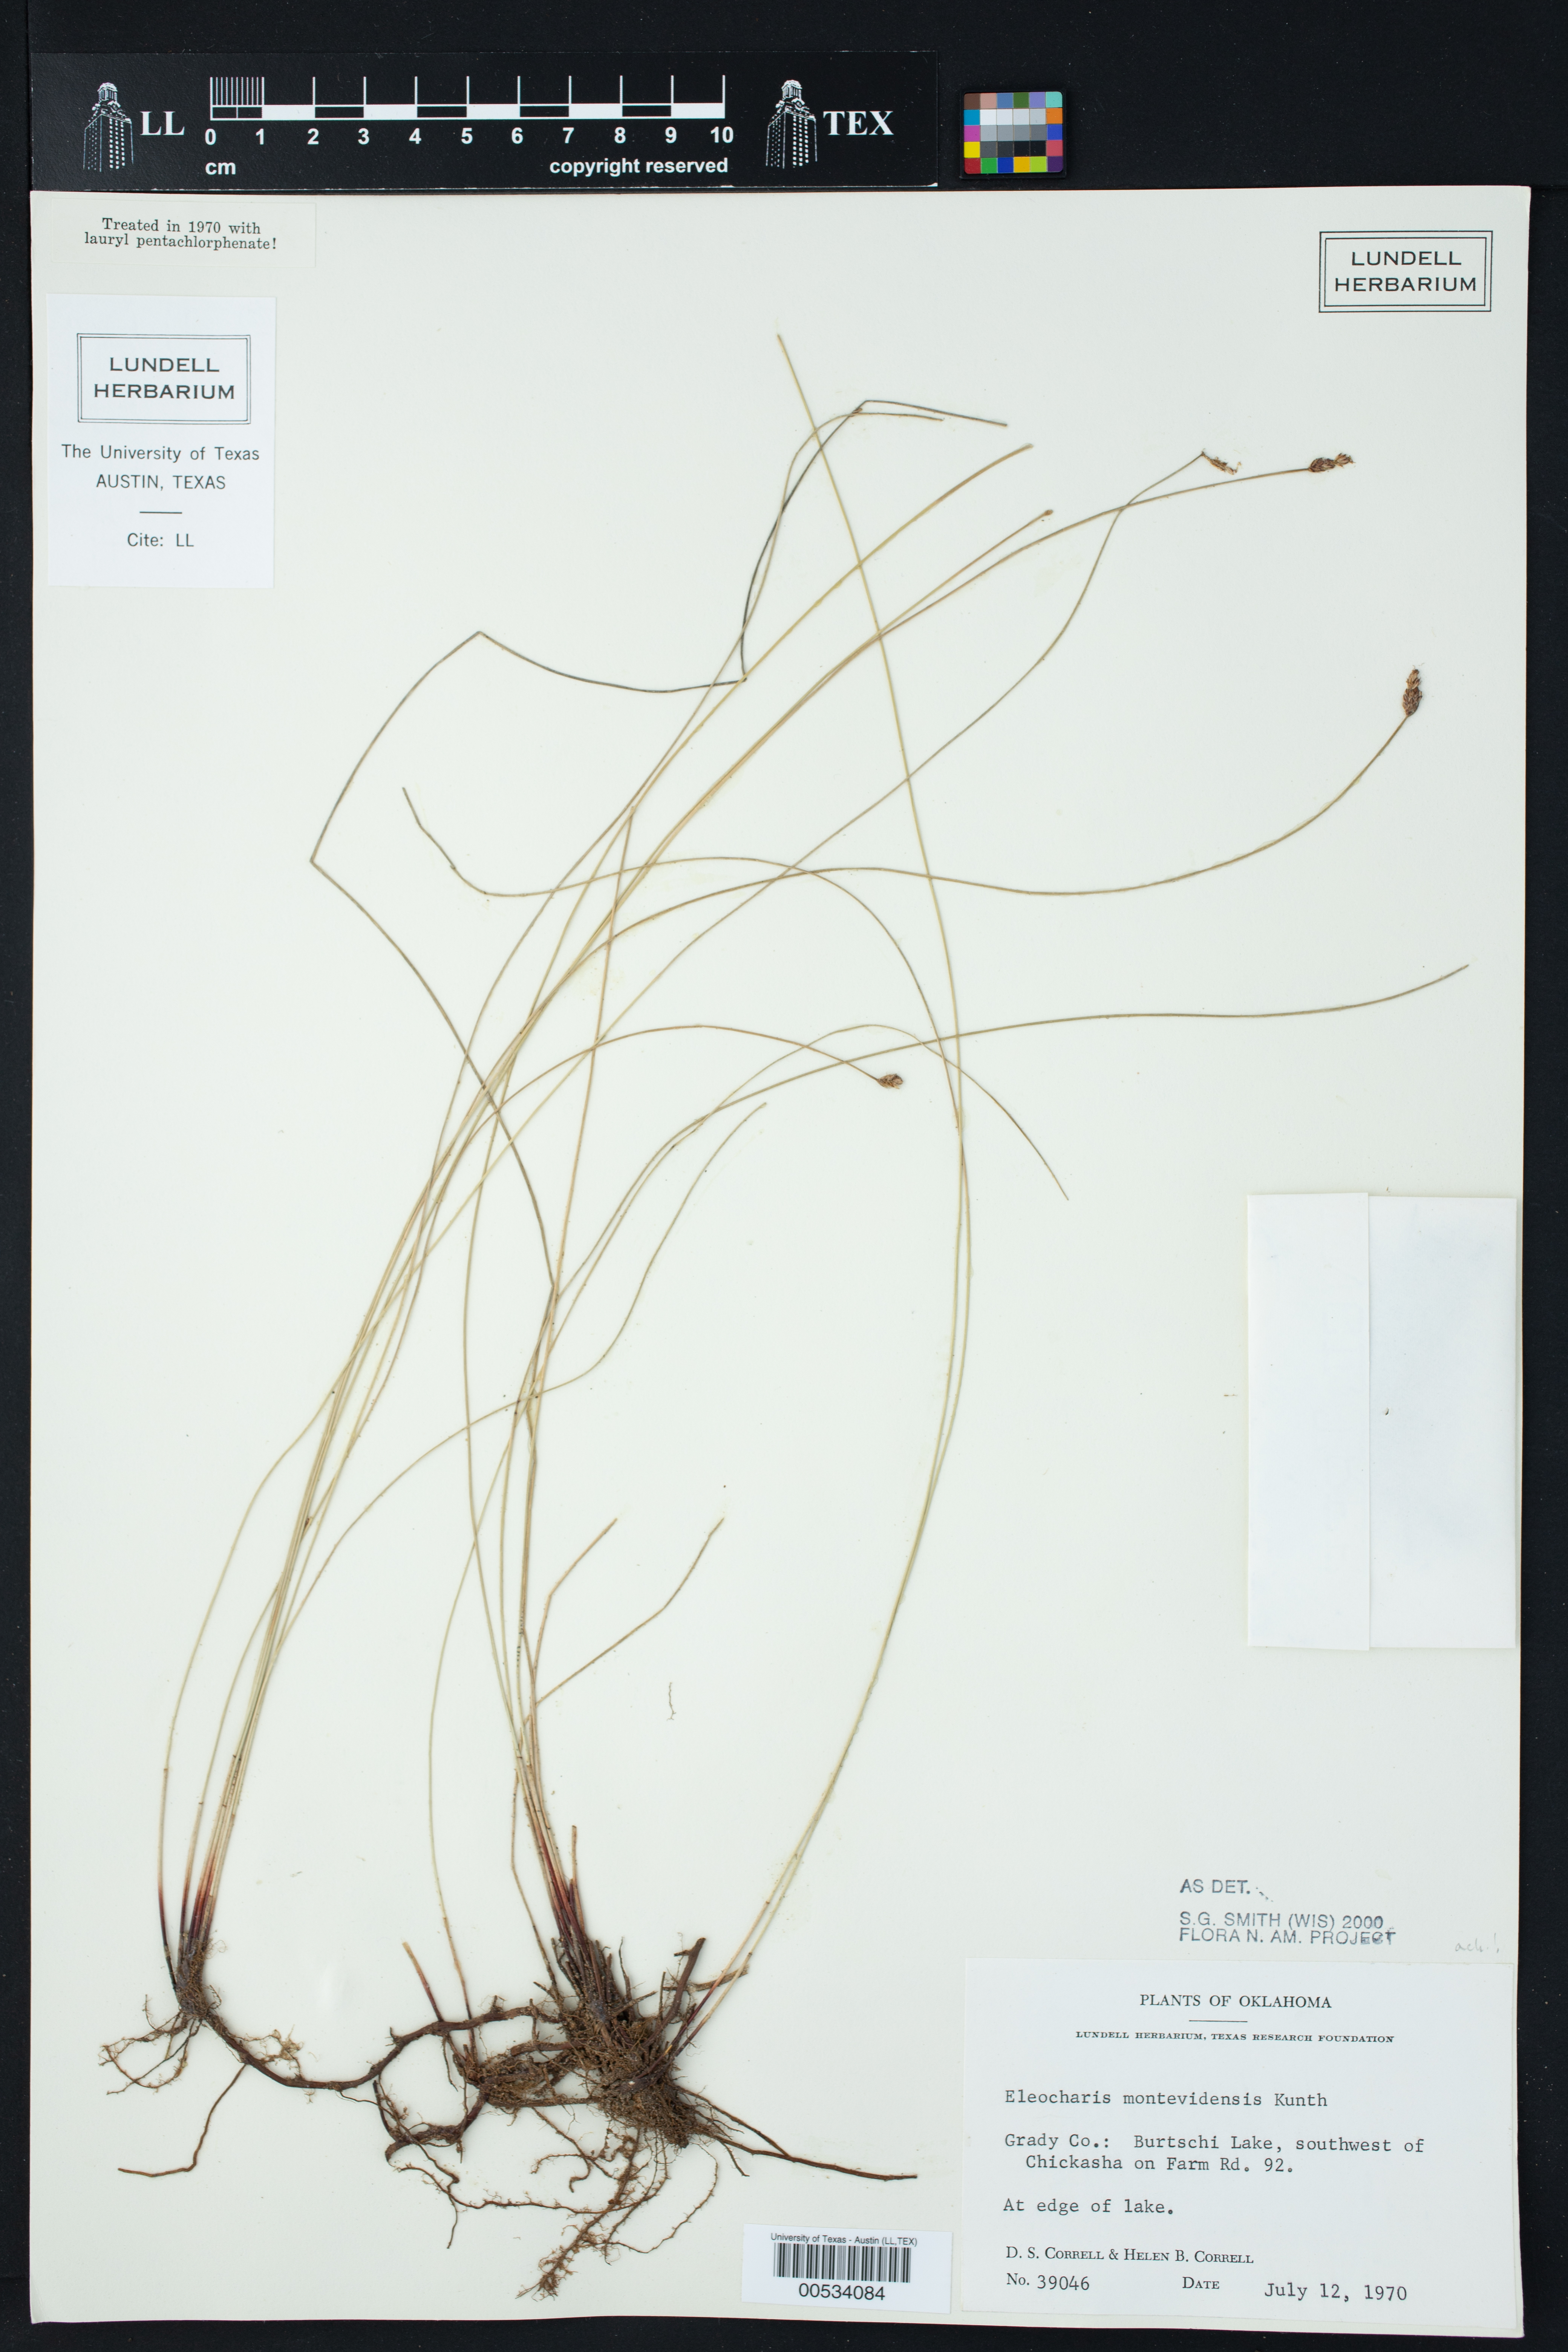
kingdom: Plantae
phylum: Tracheophyta
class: Liliopsida
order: Poales
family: Cyperaceae
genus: Eleocharis
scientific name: Eleocharis macrostachya
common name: Pale spikerush
